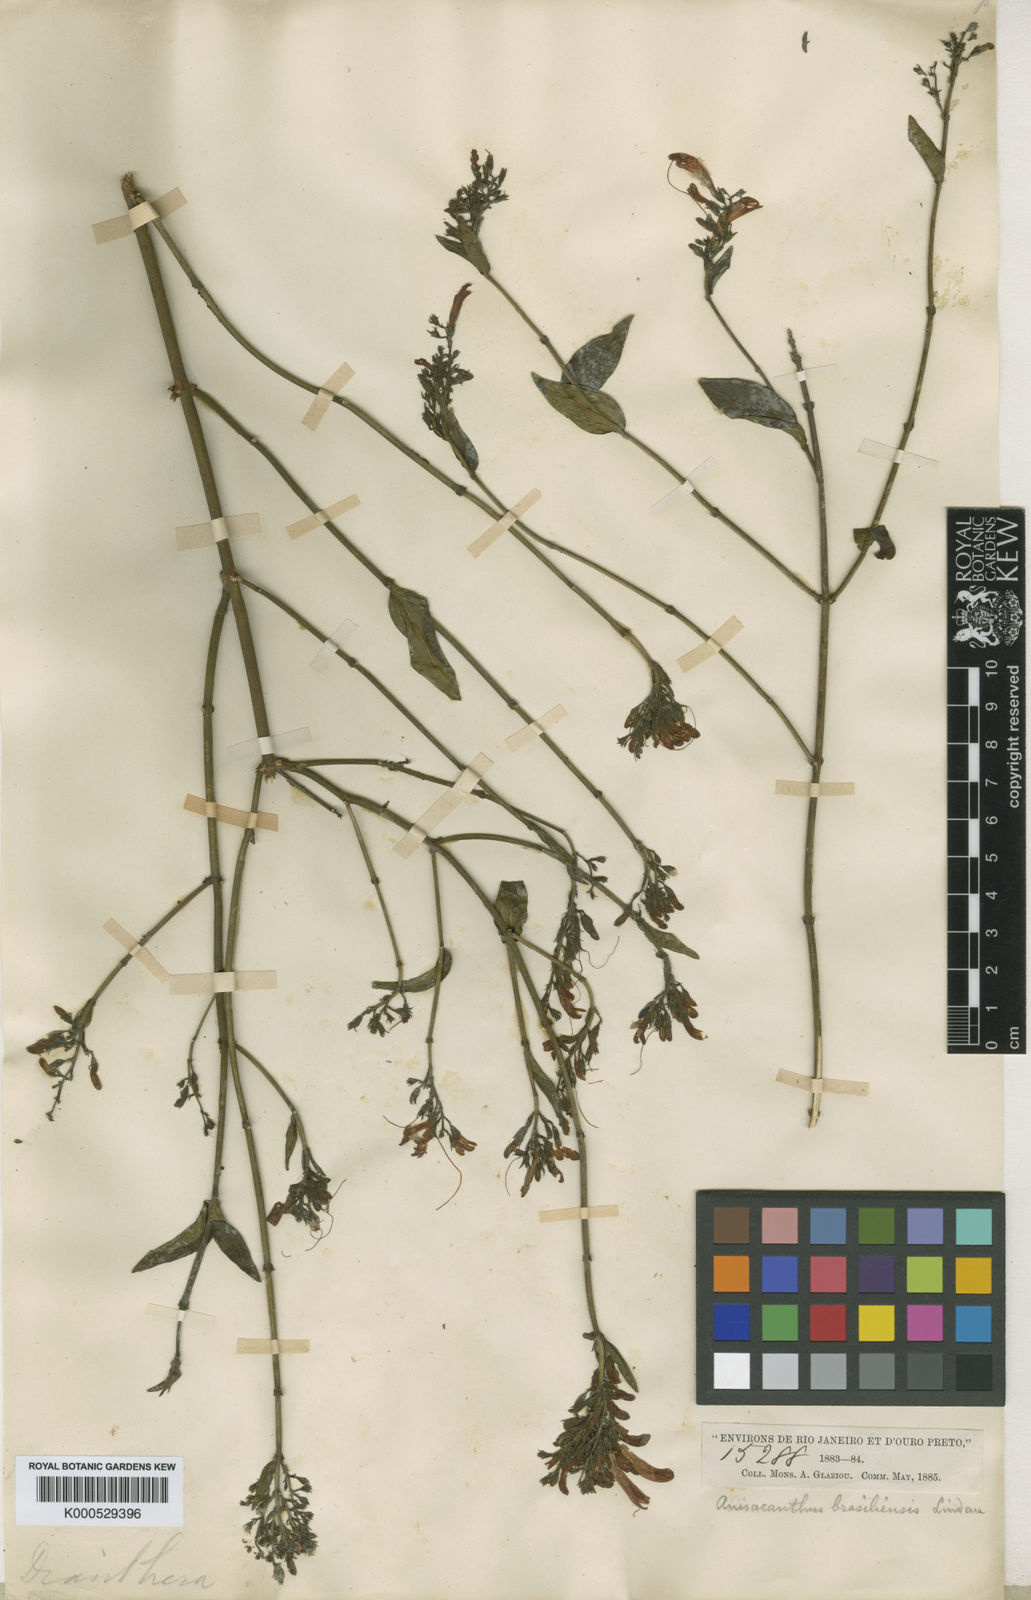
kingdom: Plantae
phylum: Tracheophyta
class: Magnoliopsida
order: Lamiales
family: Acanthaceae
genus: Thyrsacanthus
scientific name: Thyrsacanthus ramosissimus
